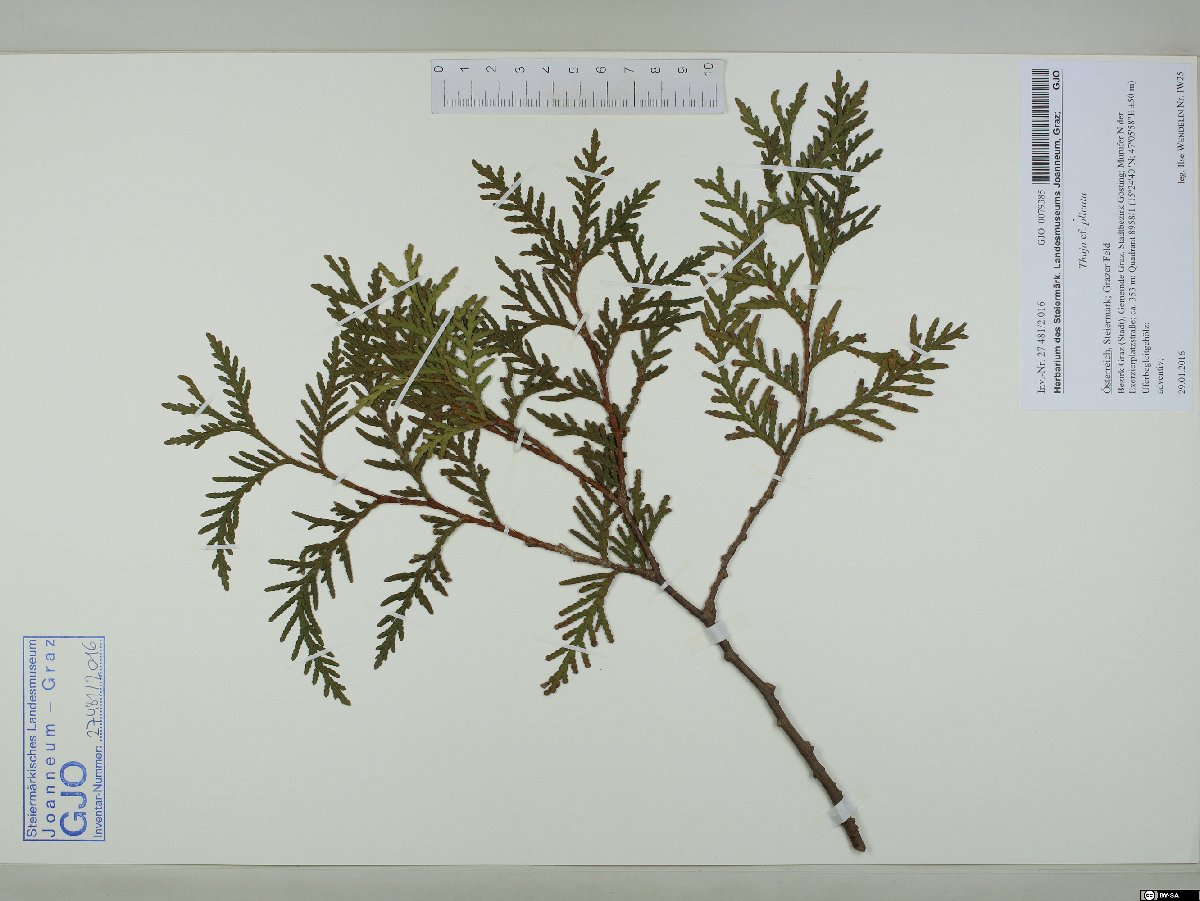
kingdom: Plantae
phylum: Tracheophyta
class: Pinopsida
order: Pinales
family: Cupressaceae
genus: Thuja
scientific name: Thuja plicata
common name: Western red-cedar
